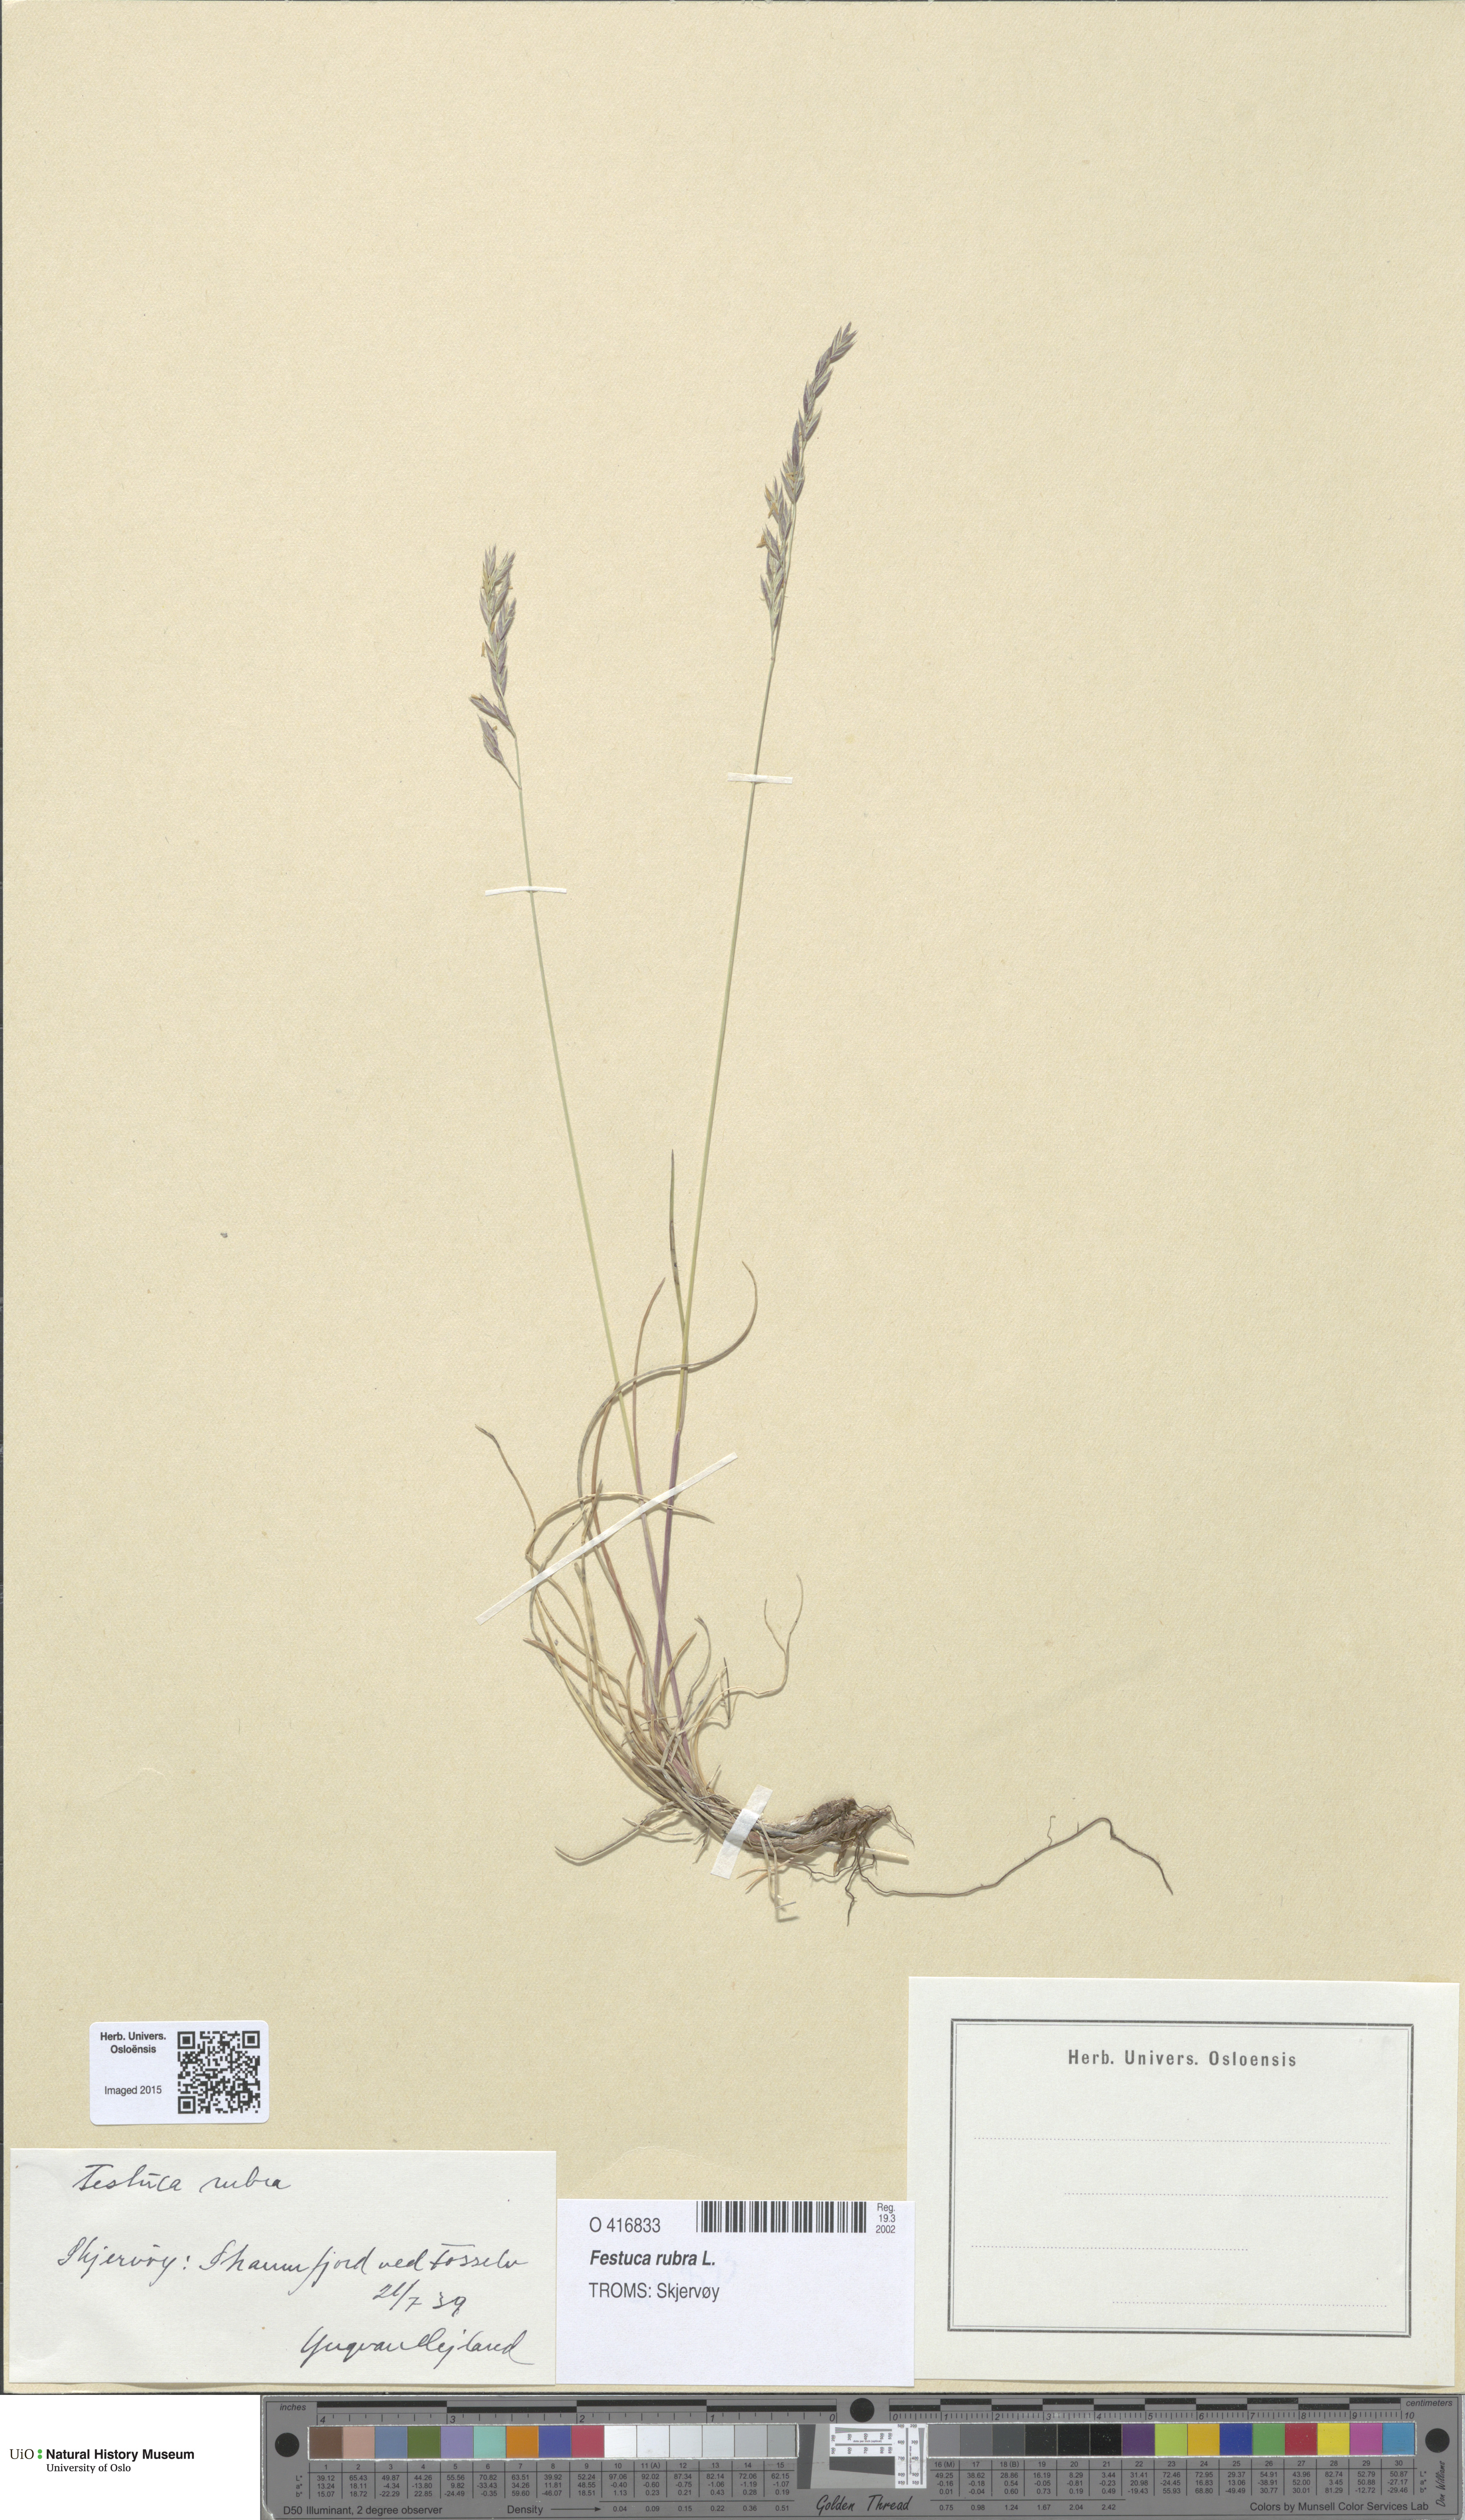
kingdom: Plantae
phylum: Tracheophyta
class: Liliopsida
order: Poales
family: Poaceae
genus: Festuca
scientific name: Festuca rubra
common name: Red fescue
